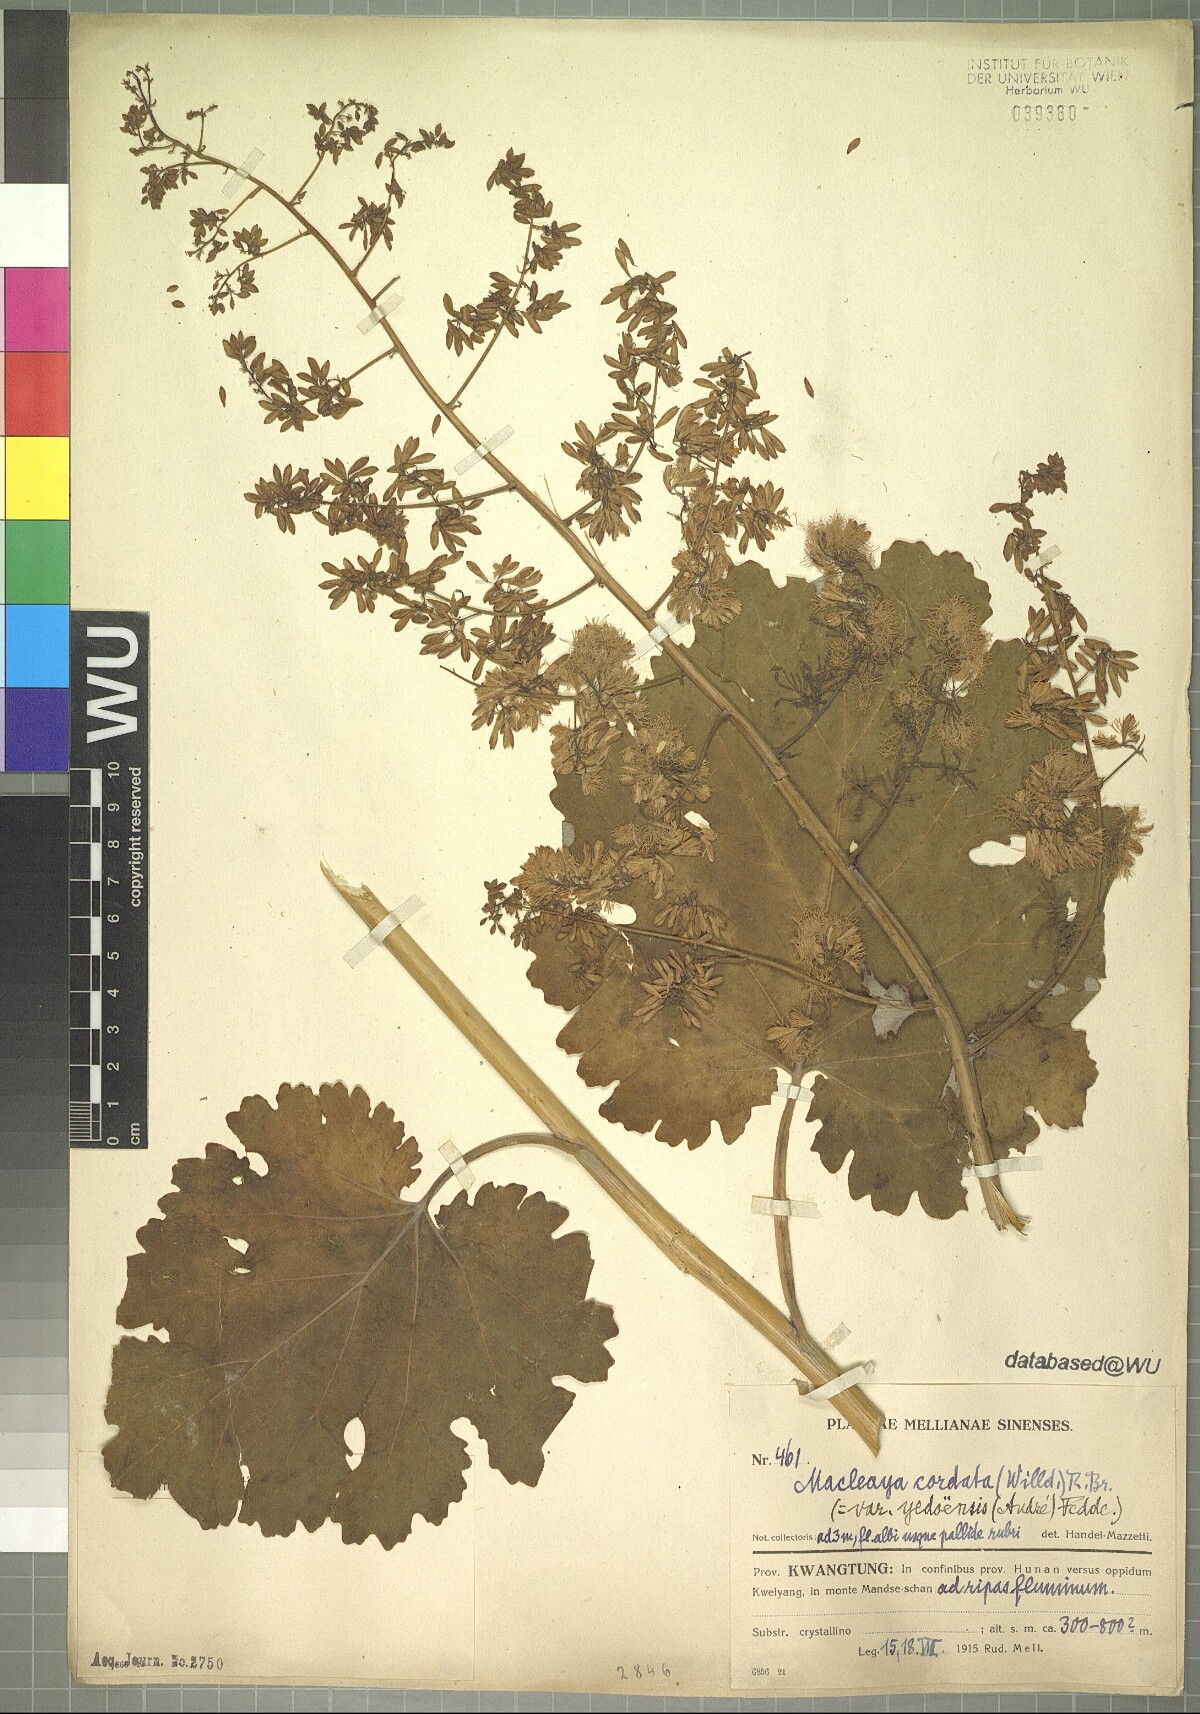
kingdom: Plantae
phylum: Tracheophyta
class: Magnoliopsida
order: Ranunculales
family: Papaveraceae
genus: Macleaya
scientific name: Macleaya cordata
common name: Plume poppy
